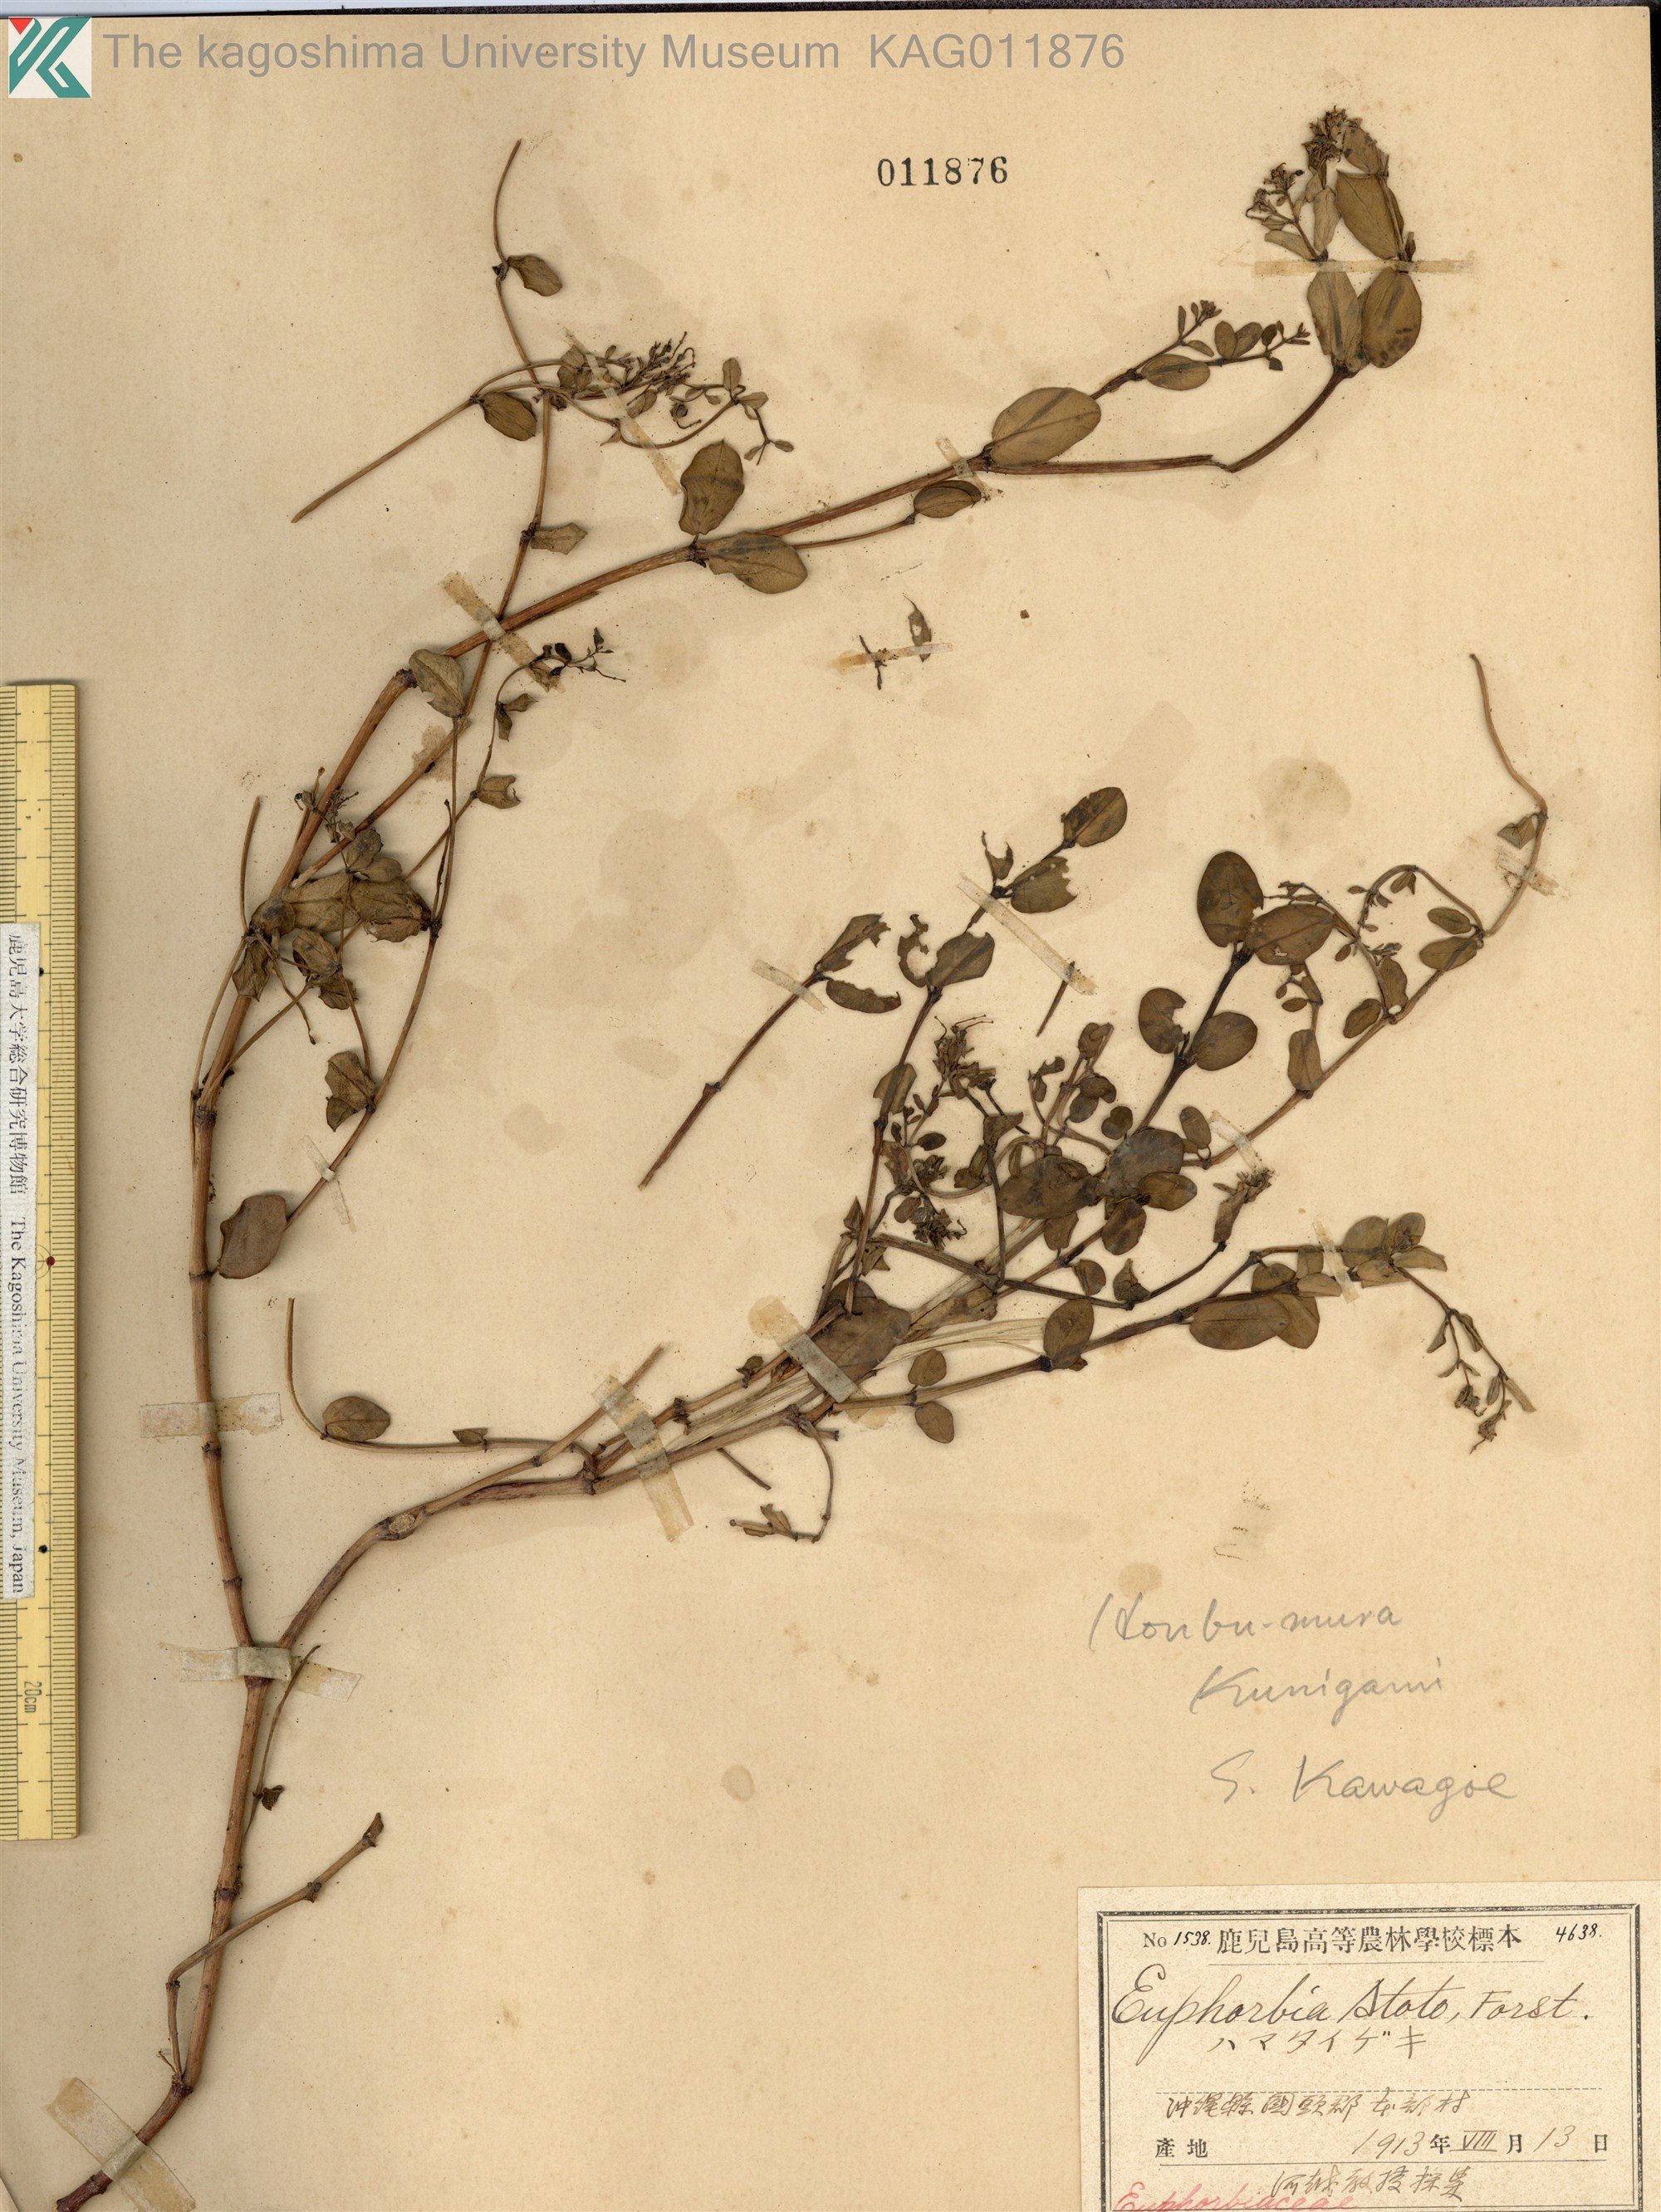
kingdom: Plantae
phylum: Tracheophyta
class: Magnoliopsida
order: Malpighiales
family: Euphorbiaceae
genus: Euphorbia
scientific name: Euphorbia chamissonis
